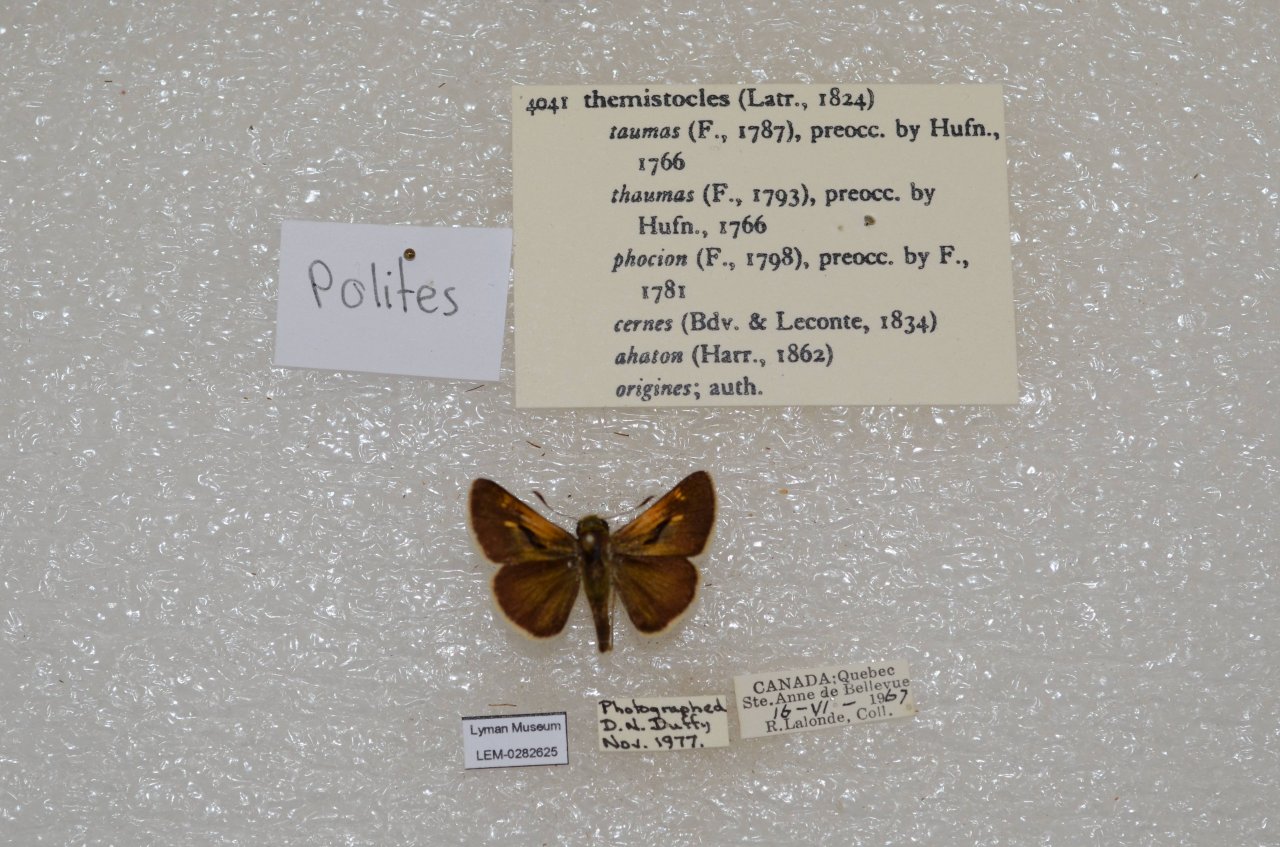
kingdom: Animalia
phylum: Arthropoda
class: Insecta
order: Lepidoptera
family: Hesperiidae
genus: Polites
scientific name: Polites themistocles
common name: Tawny-edged Skipper
